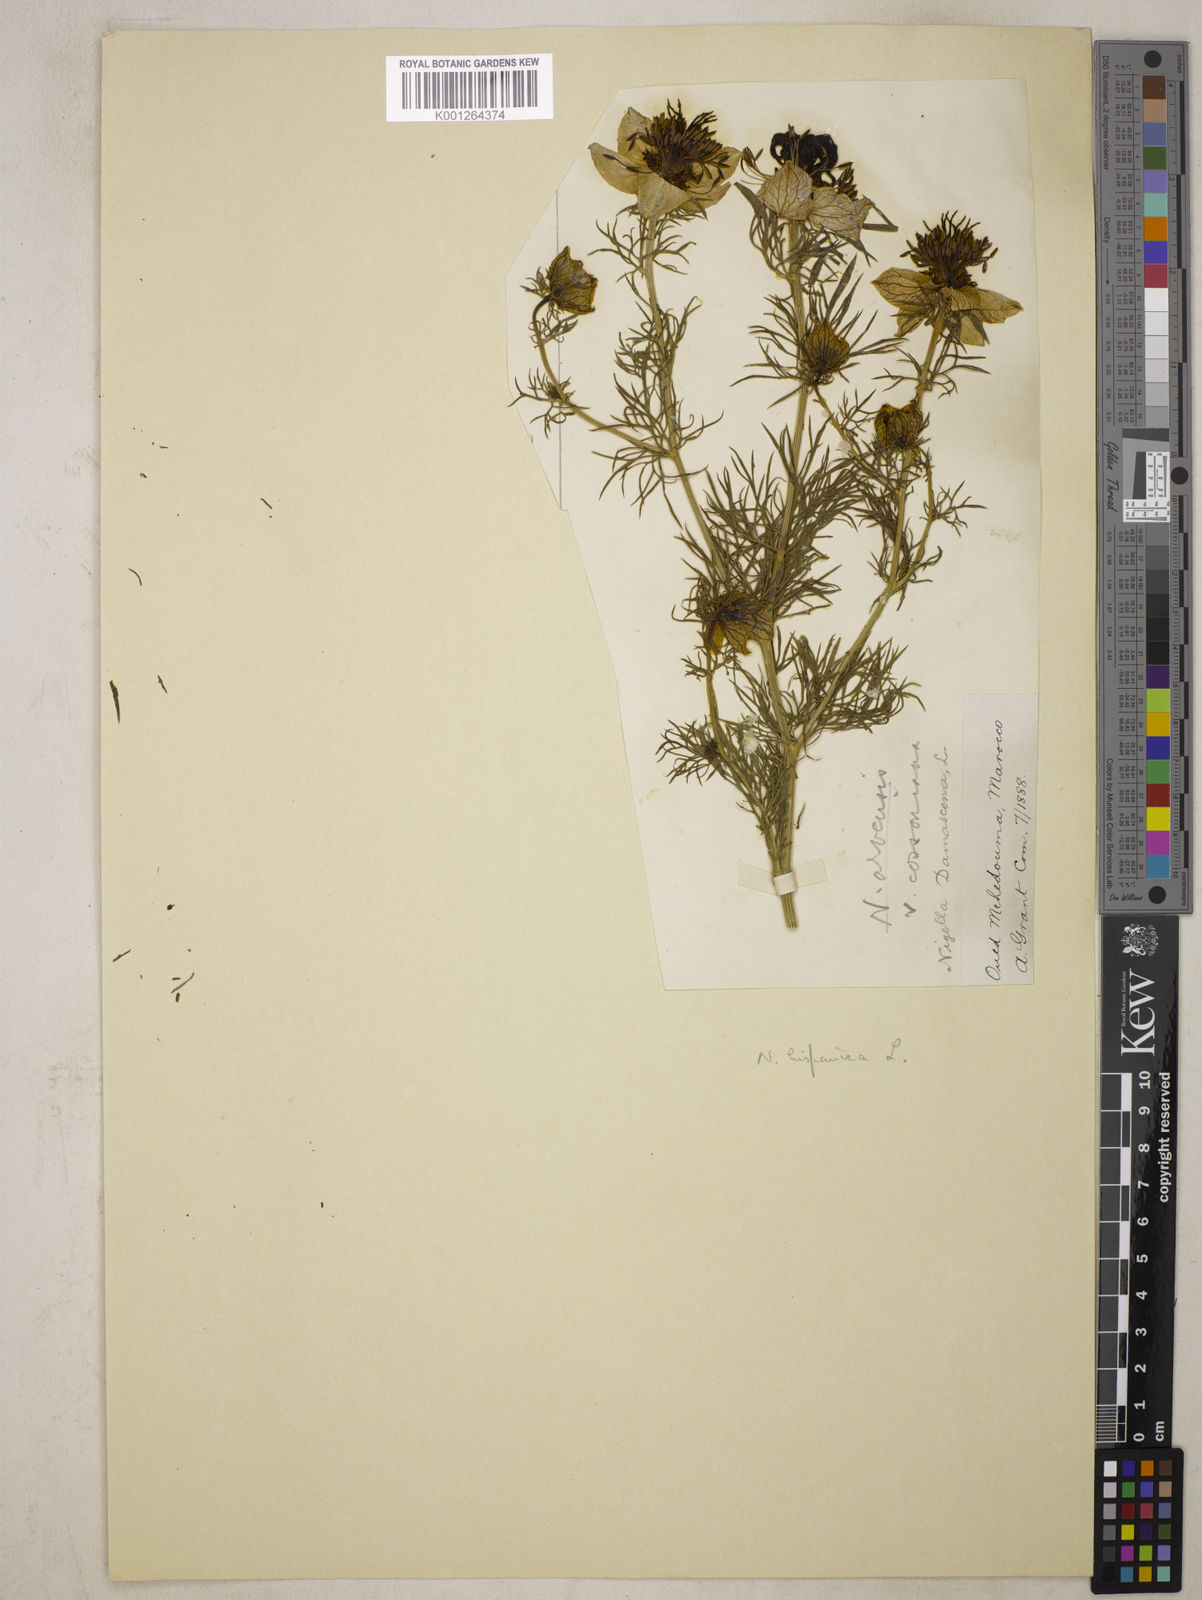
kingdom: Plantae
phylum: Tracheophyta
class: Magnoliopsida
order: Ranunculales
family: Ranunculaceae
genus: Nigella
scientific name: Nigella hispanica
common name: Fennel-flower
